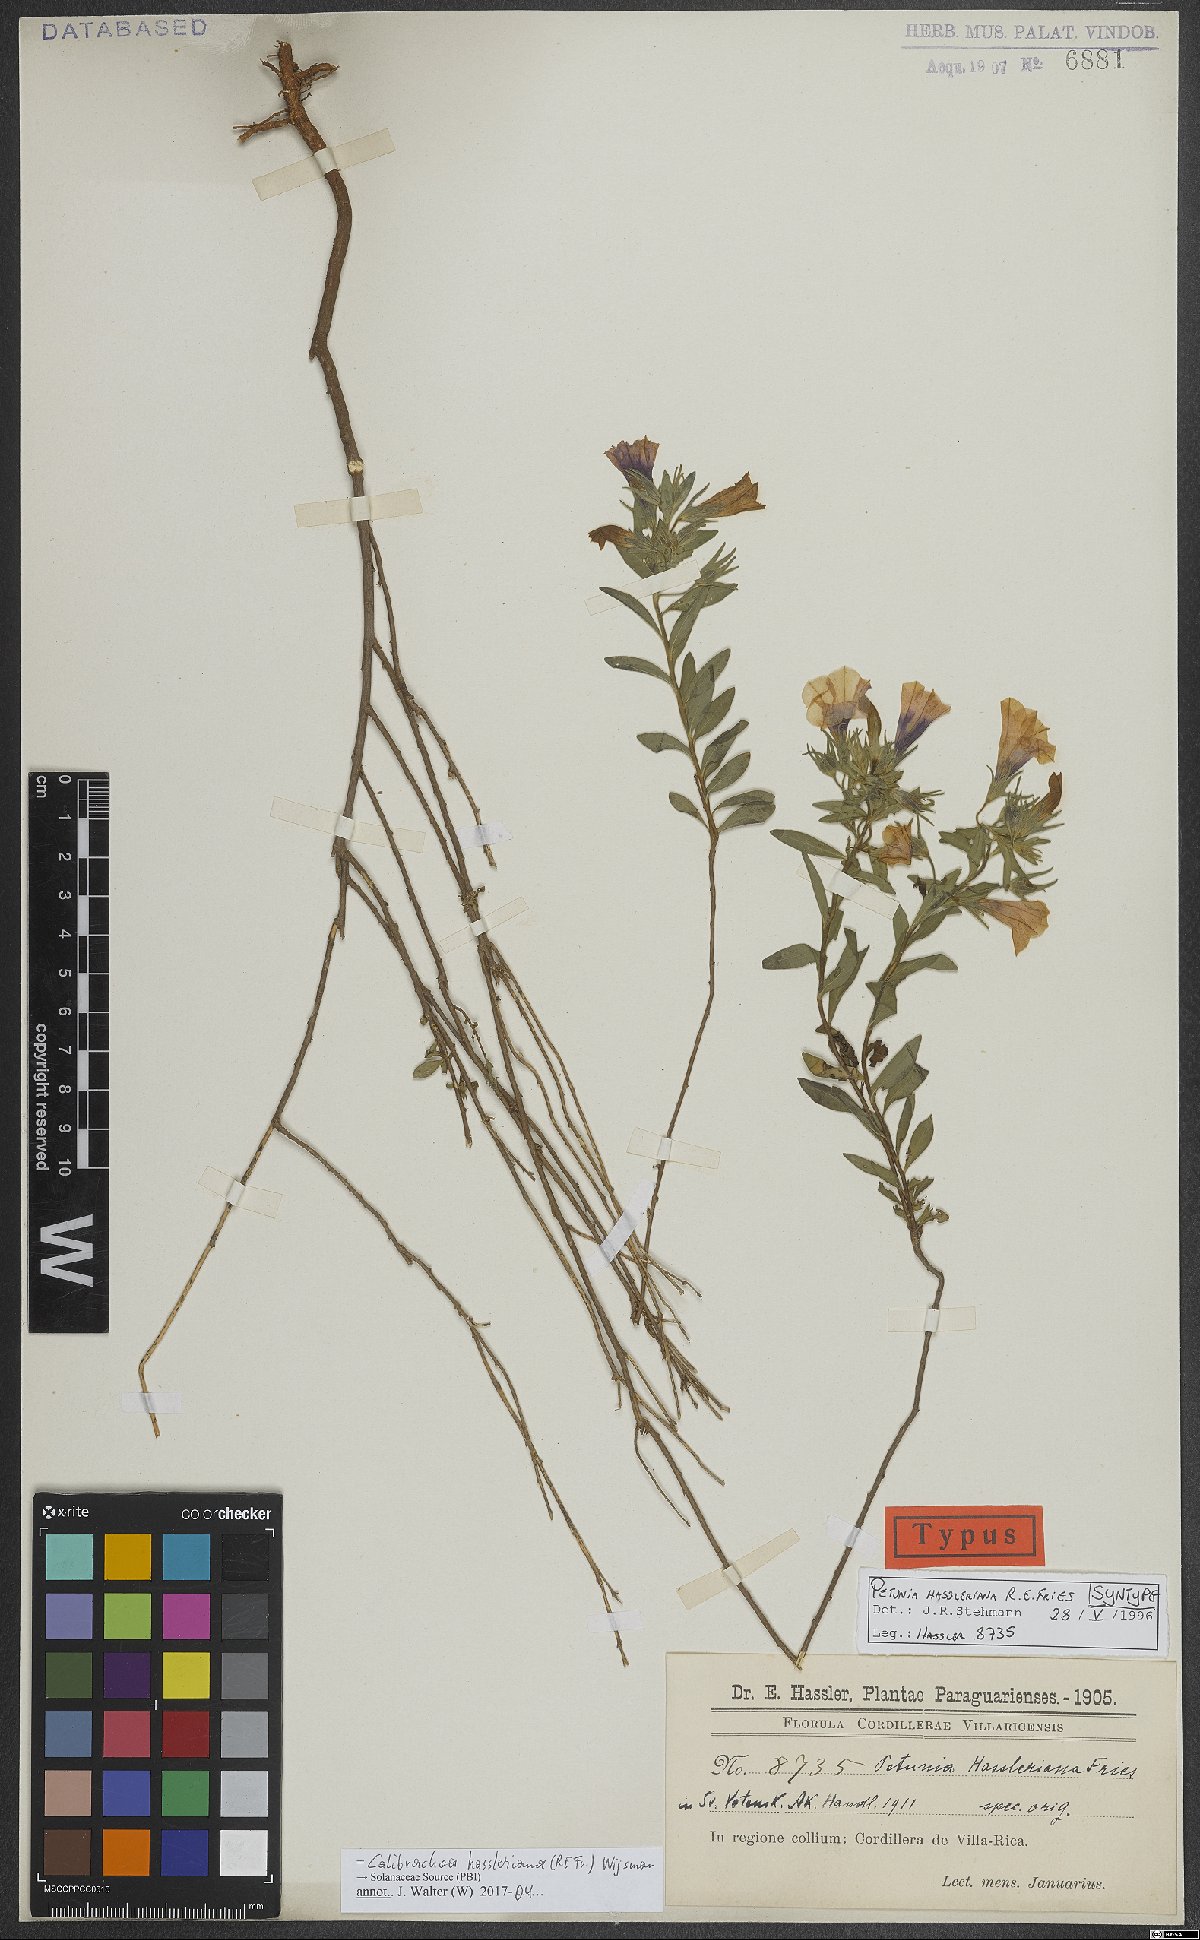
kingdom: Plantae
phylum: Tracheophyta
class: Magnoliopsida
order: Solanales
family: Solanaceae
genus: Calibrachoa
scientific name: Calibrachoa excellens
